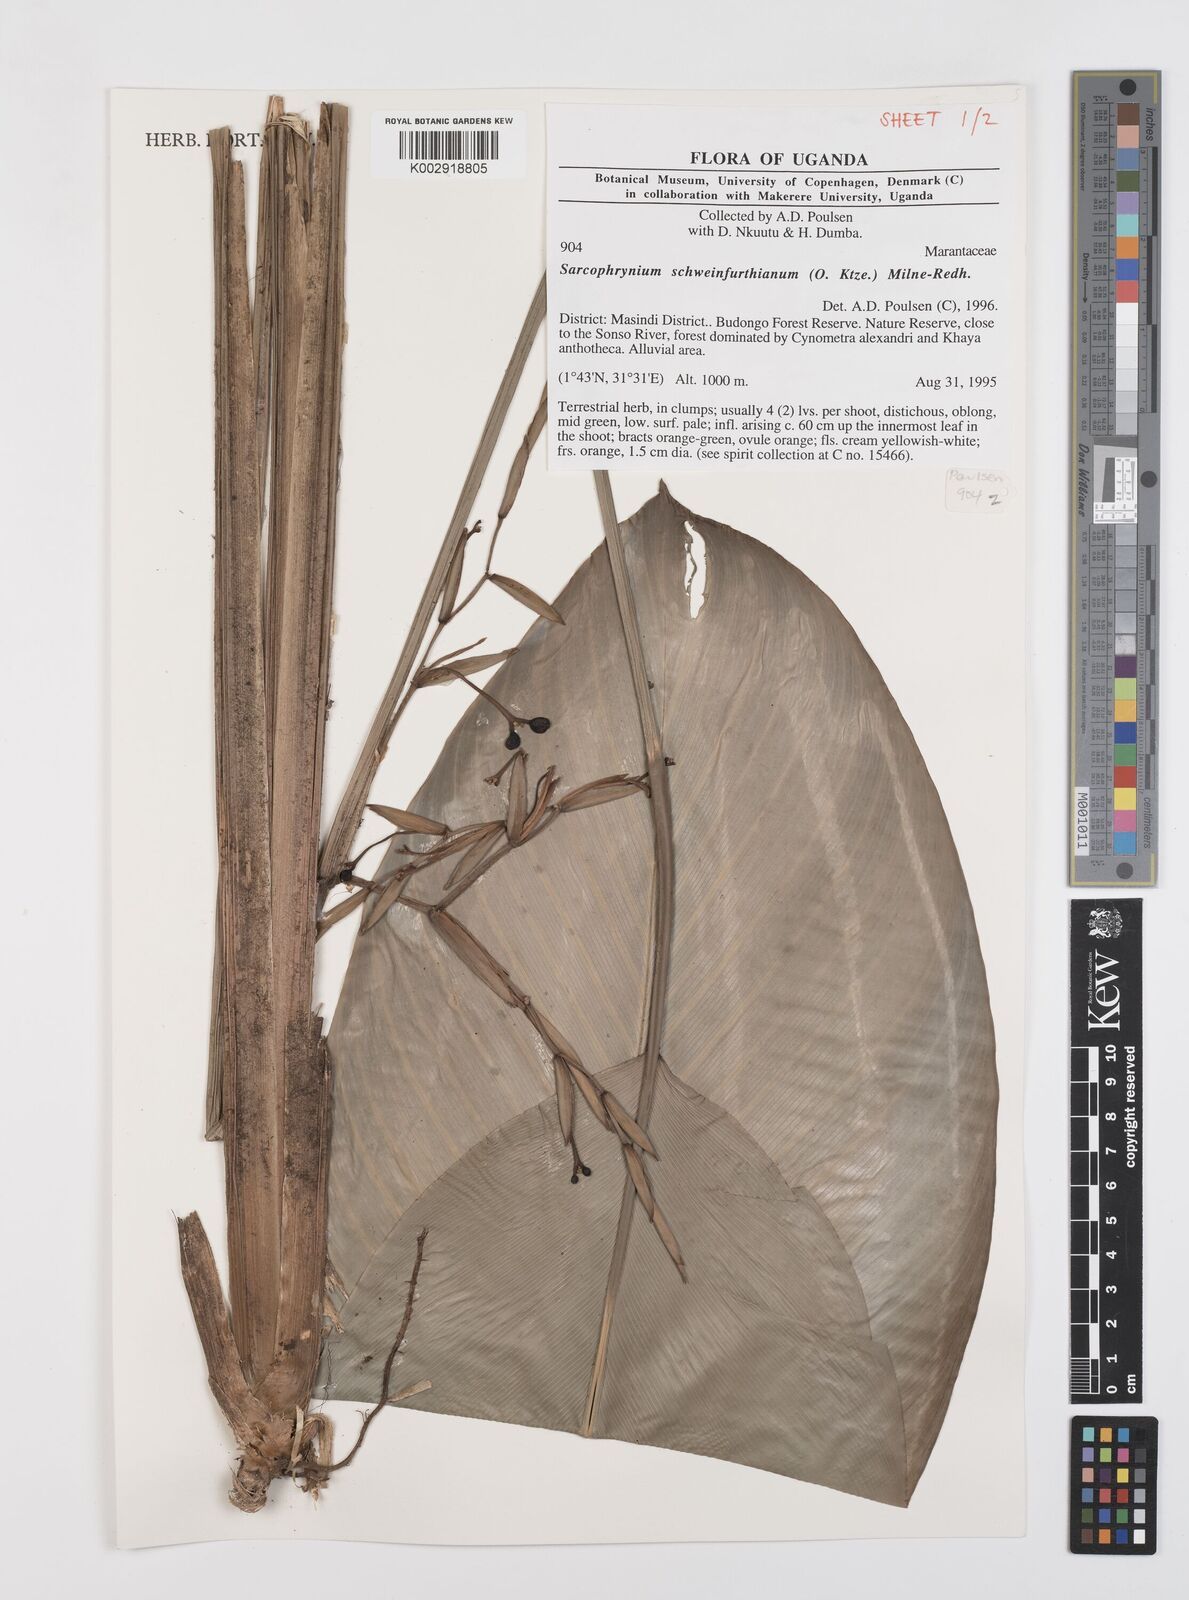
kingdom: Plantae
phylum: Tracheophyta
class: Liliopsida
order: Zingiberales
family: Marantaceae
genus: Sarcophrynium
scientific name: Sarcophrynium schweinfurthianum
